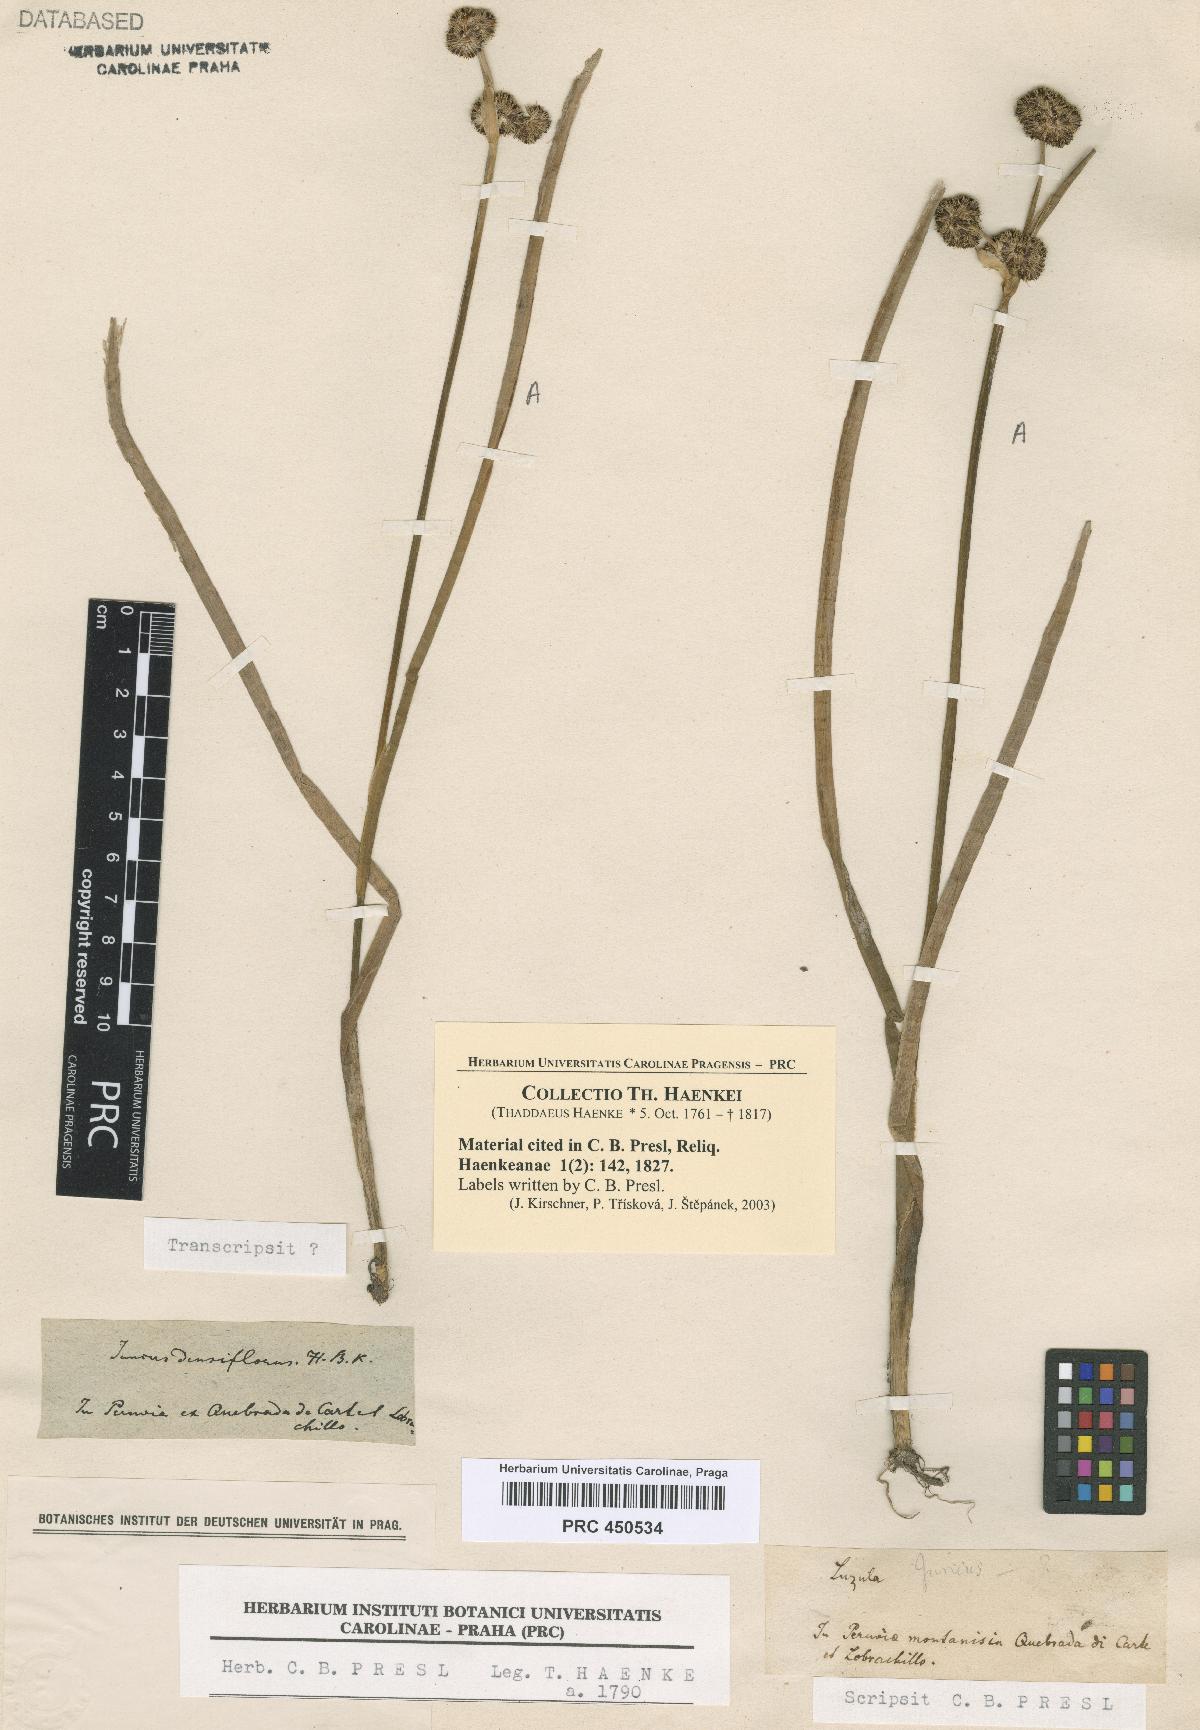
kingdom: Plantae
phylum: Tracheophyta
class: Liliopsida
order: Poales
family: Juncaceae
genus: Juncus
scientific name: Juncus densiflorus
